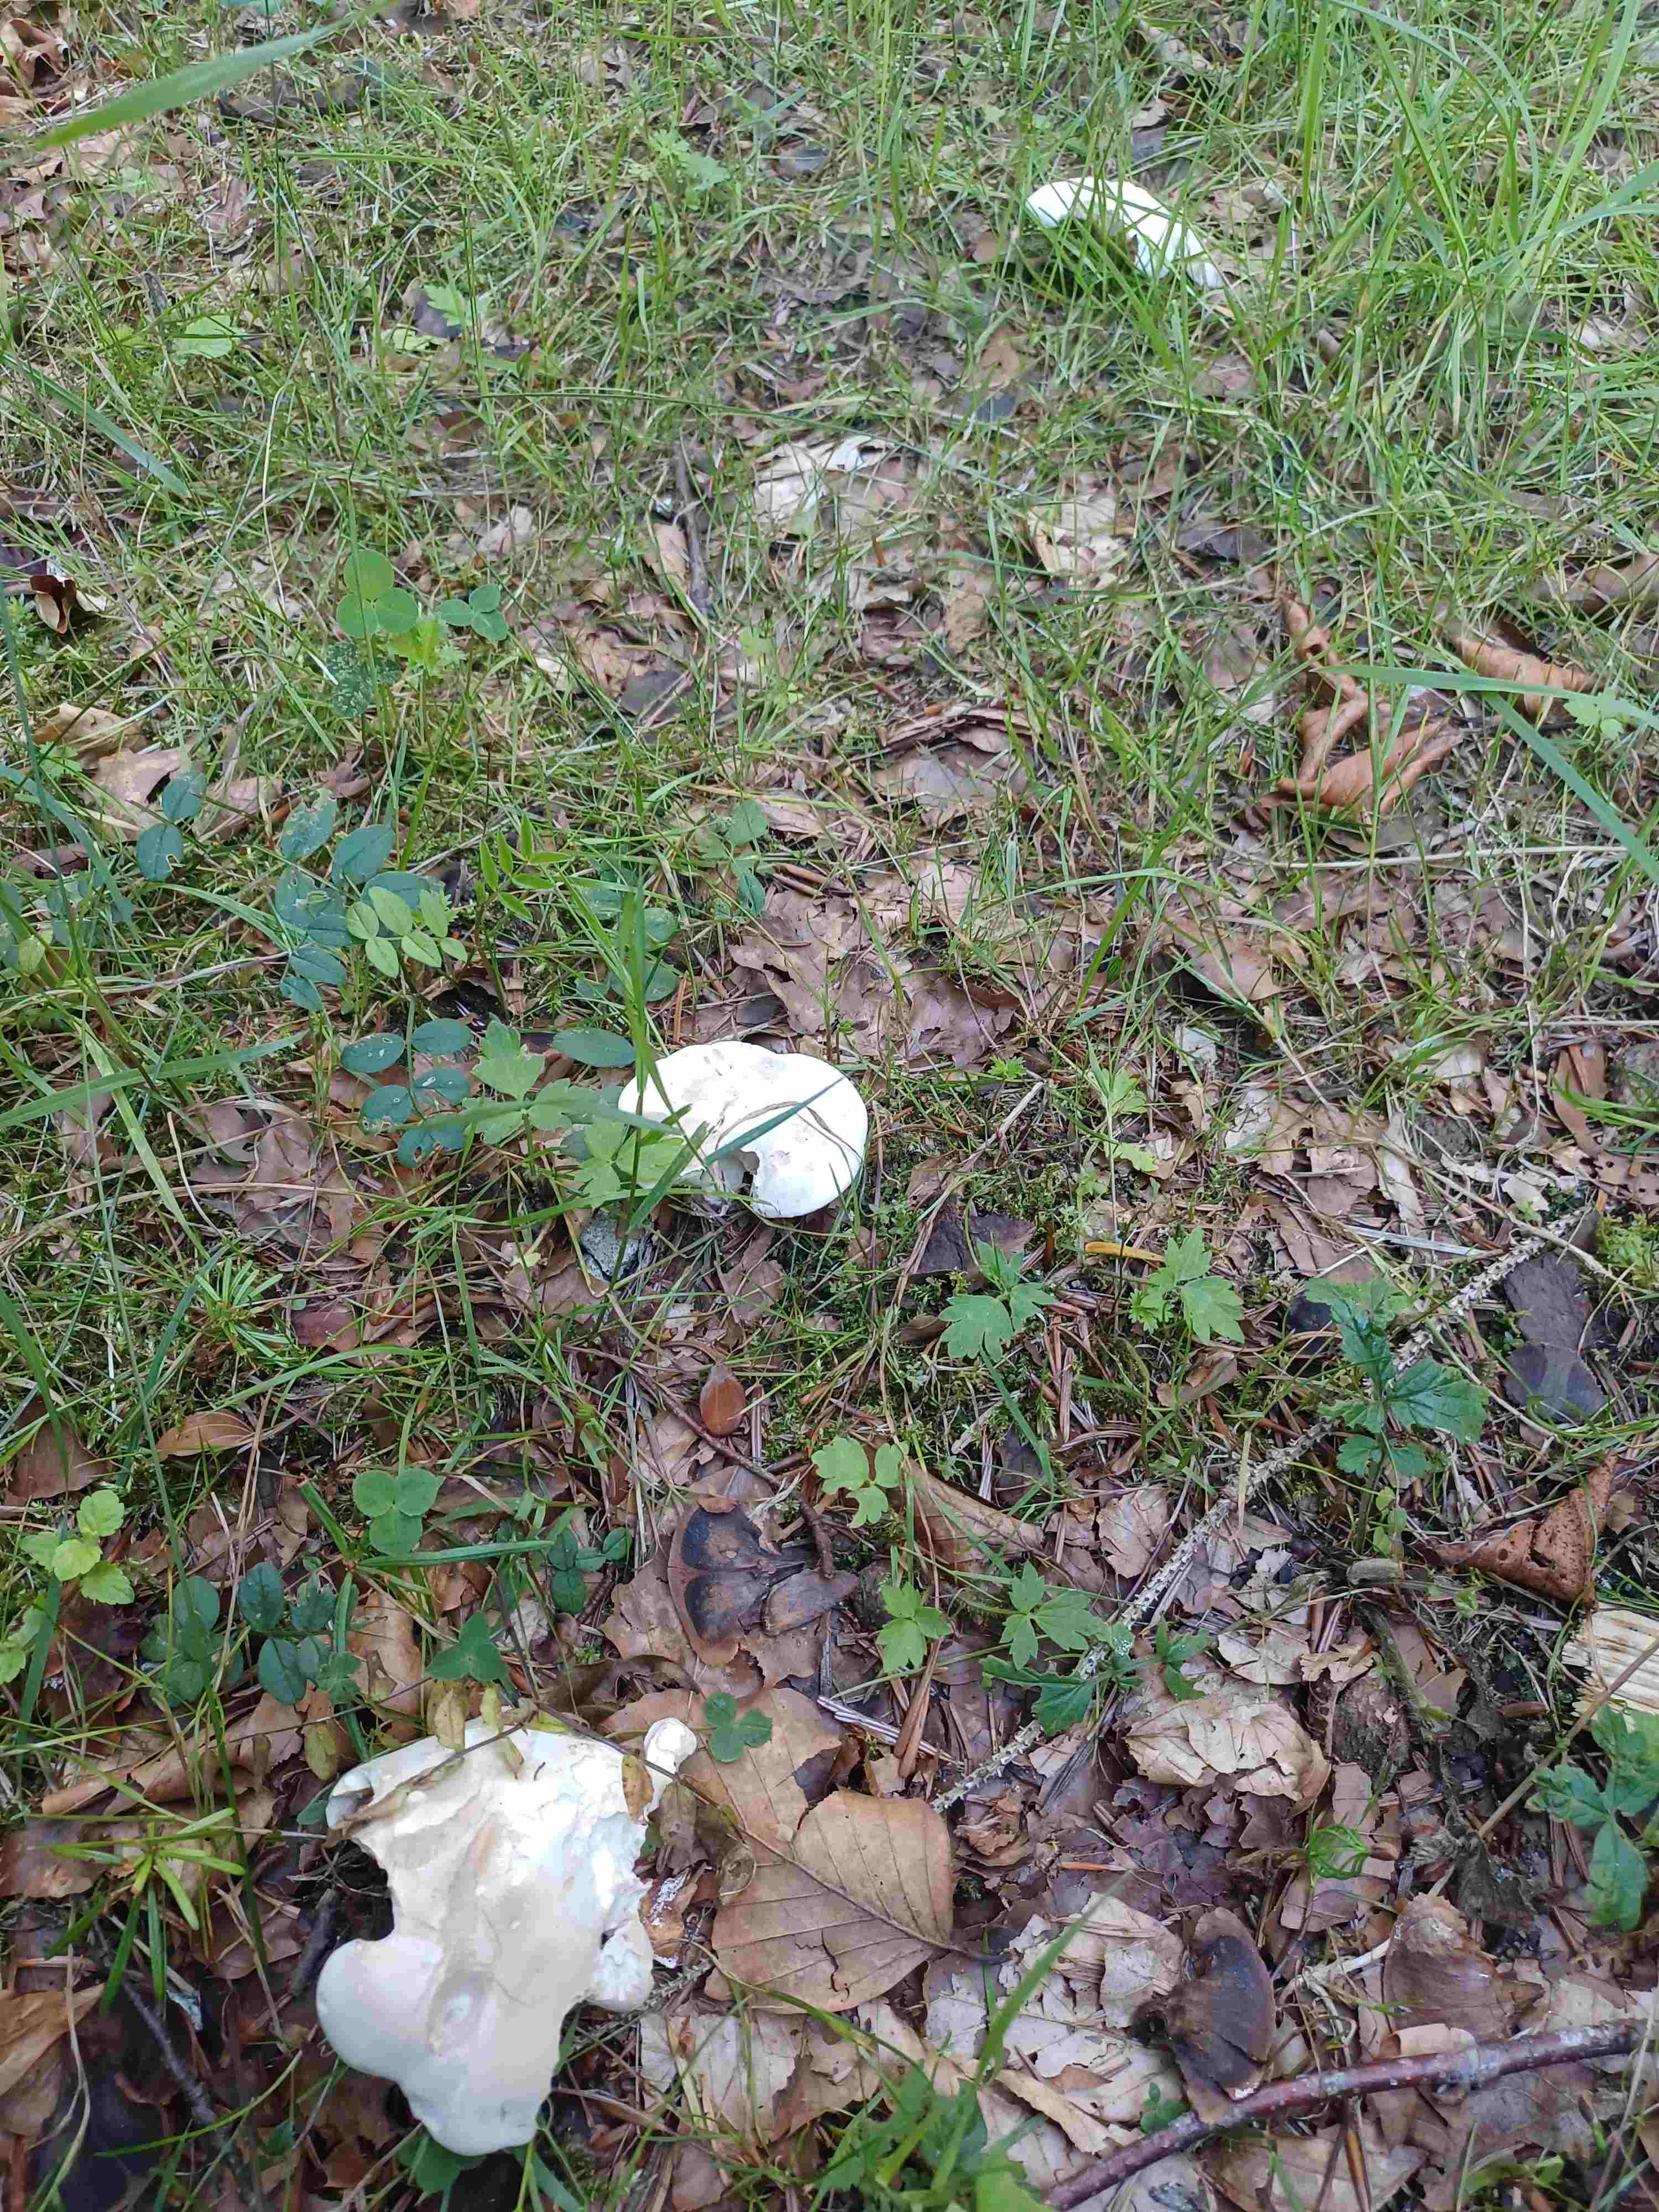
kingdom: Fungi
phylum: Basidiomycota
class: Agaricomycetes
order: Agaricales
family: Entolomataceae
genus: Clitopilus
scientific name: Clitopilus prunulus
